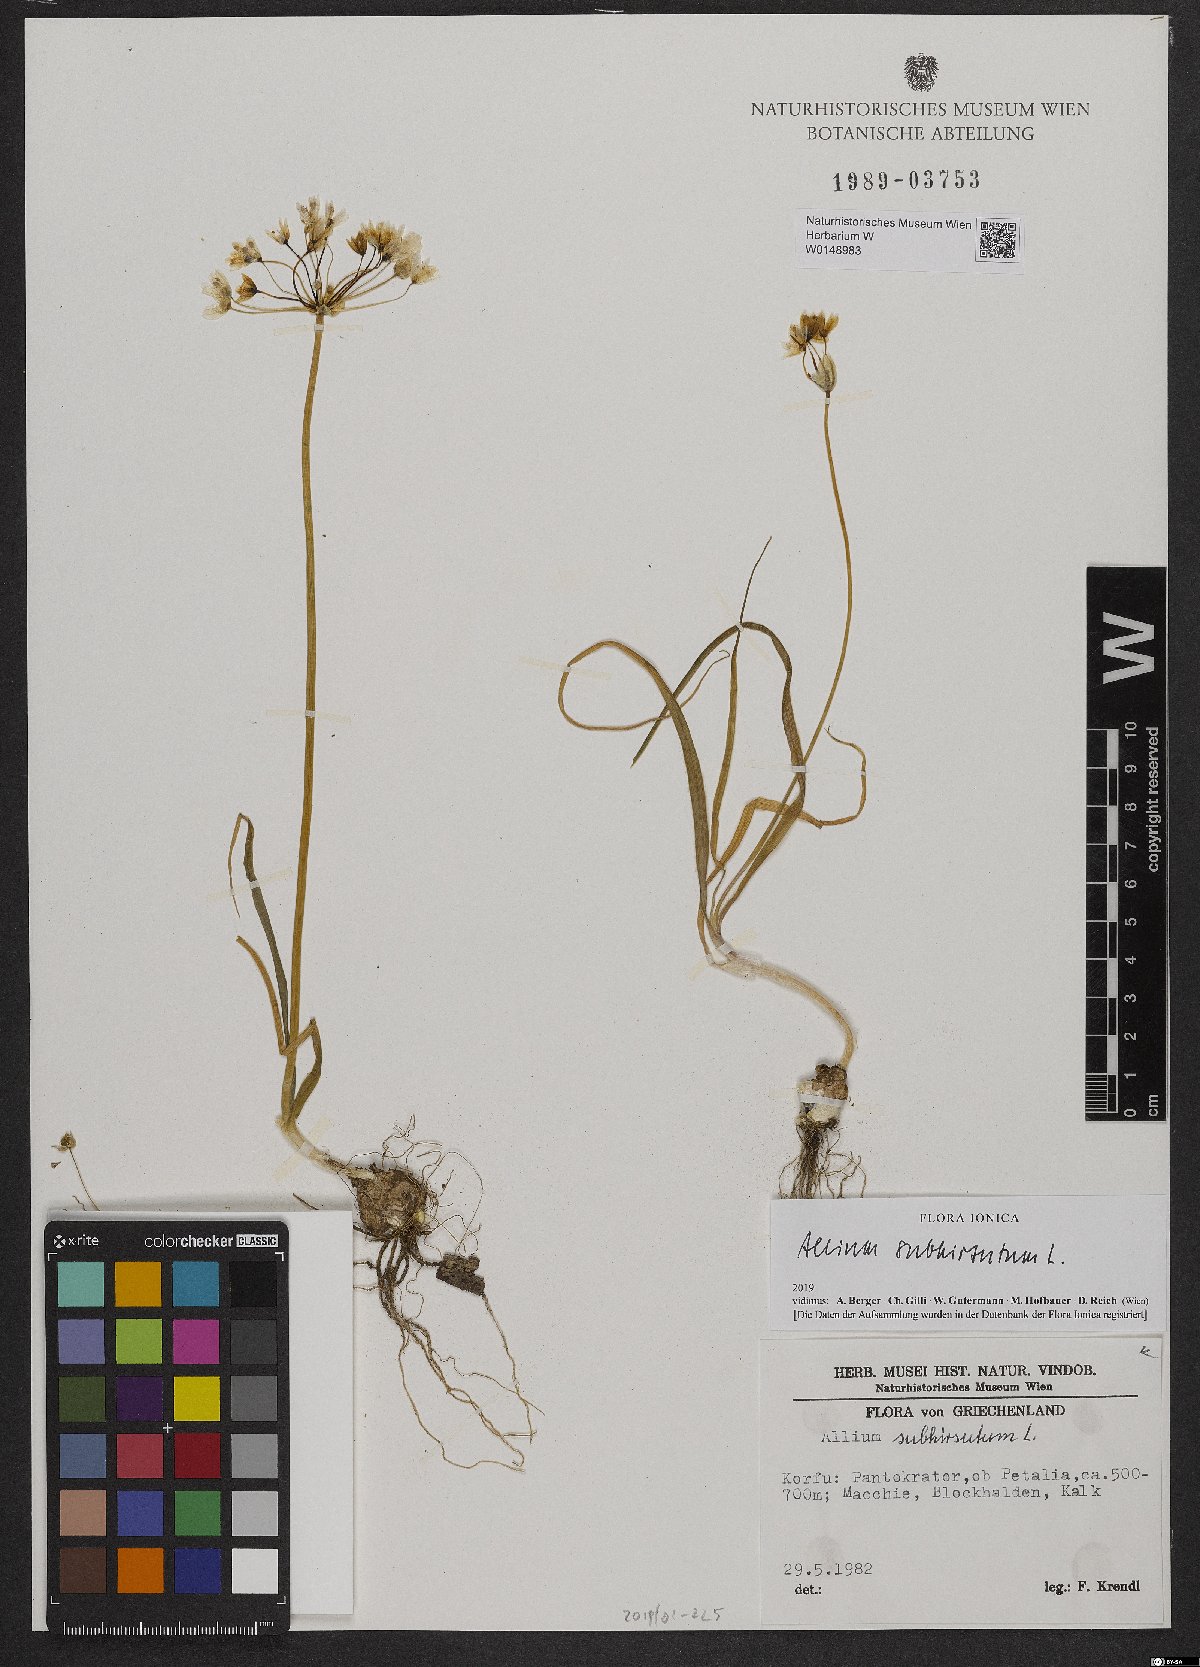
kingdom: Plantae
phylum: Tracheophyta
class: Liliopsida
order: Asparagales
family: Amaryllidaceae
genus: Allium
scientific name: Allium subhirsutum
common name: Hairy garlic
